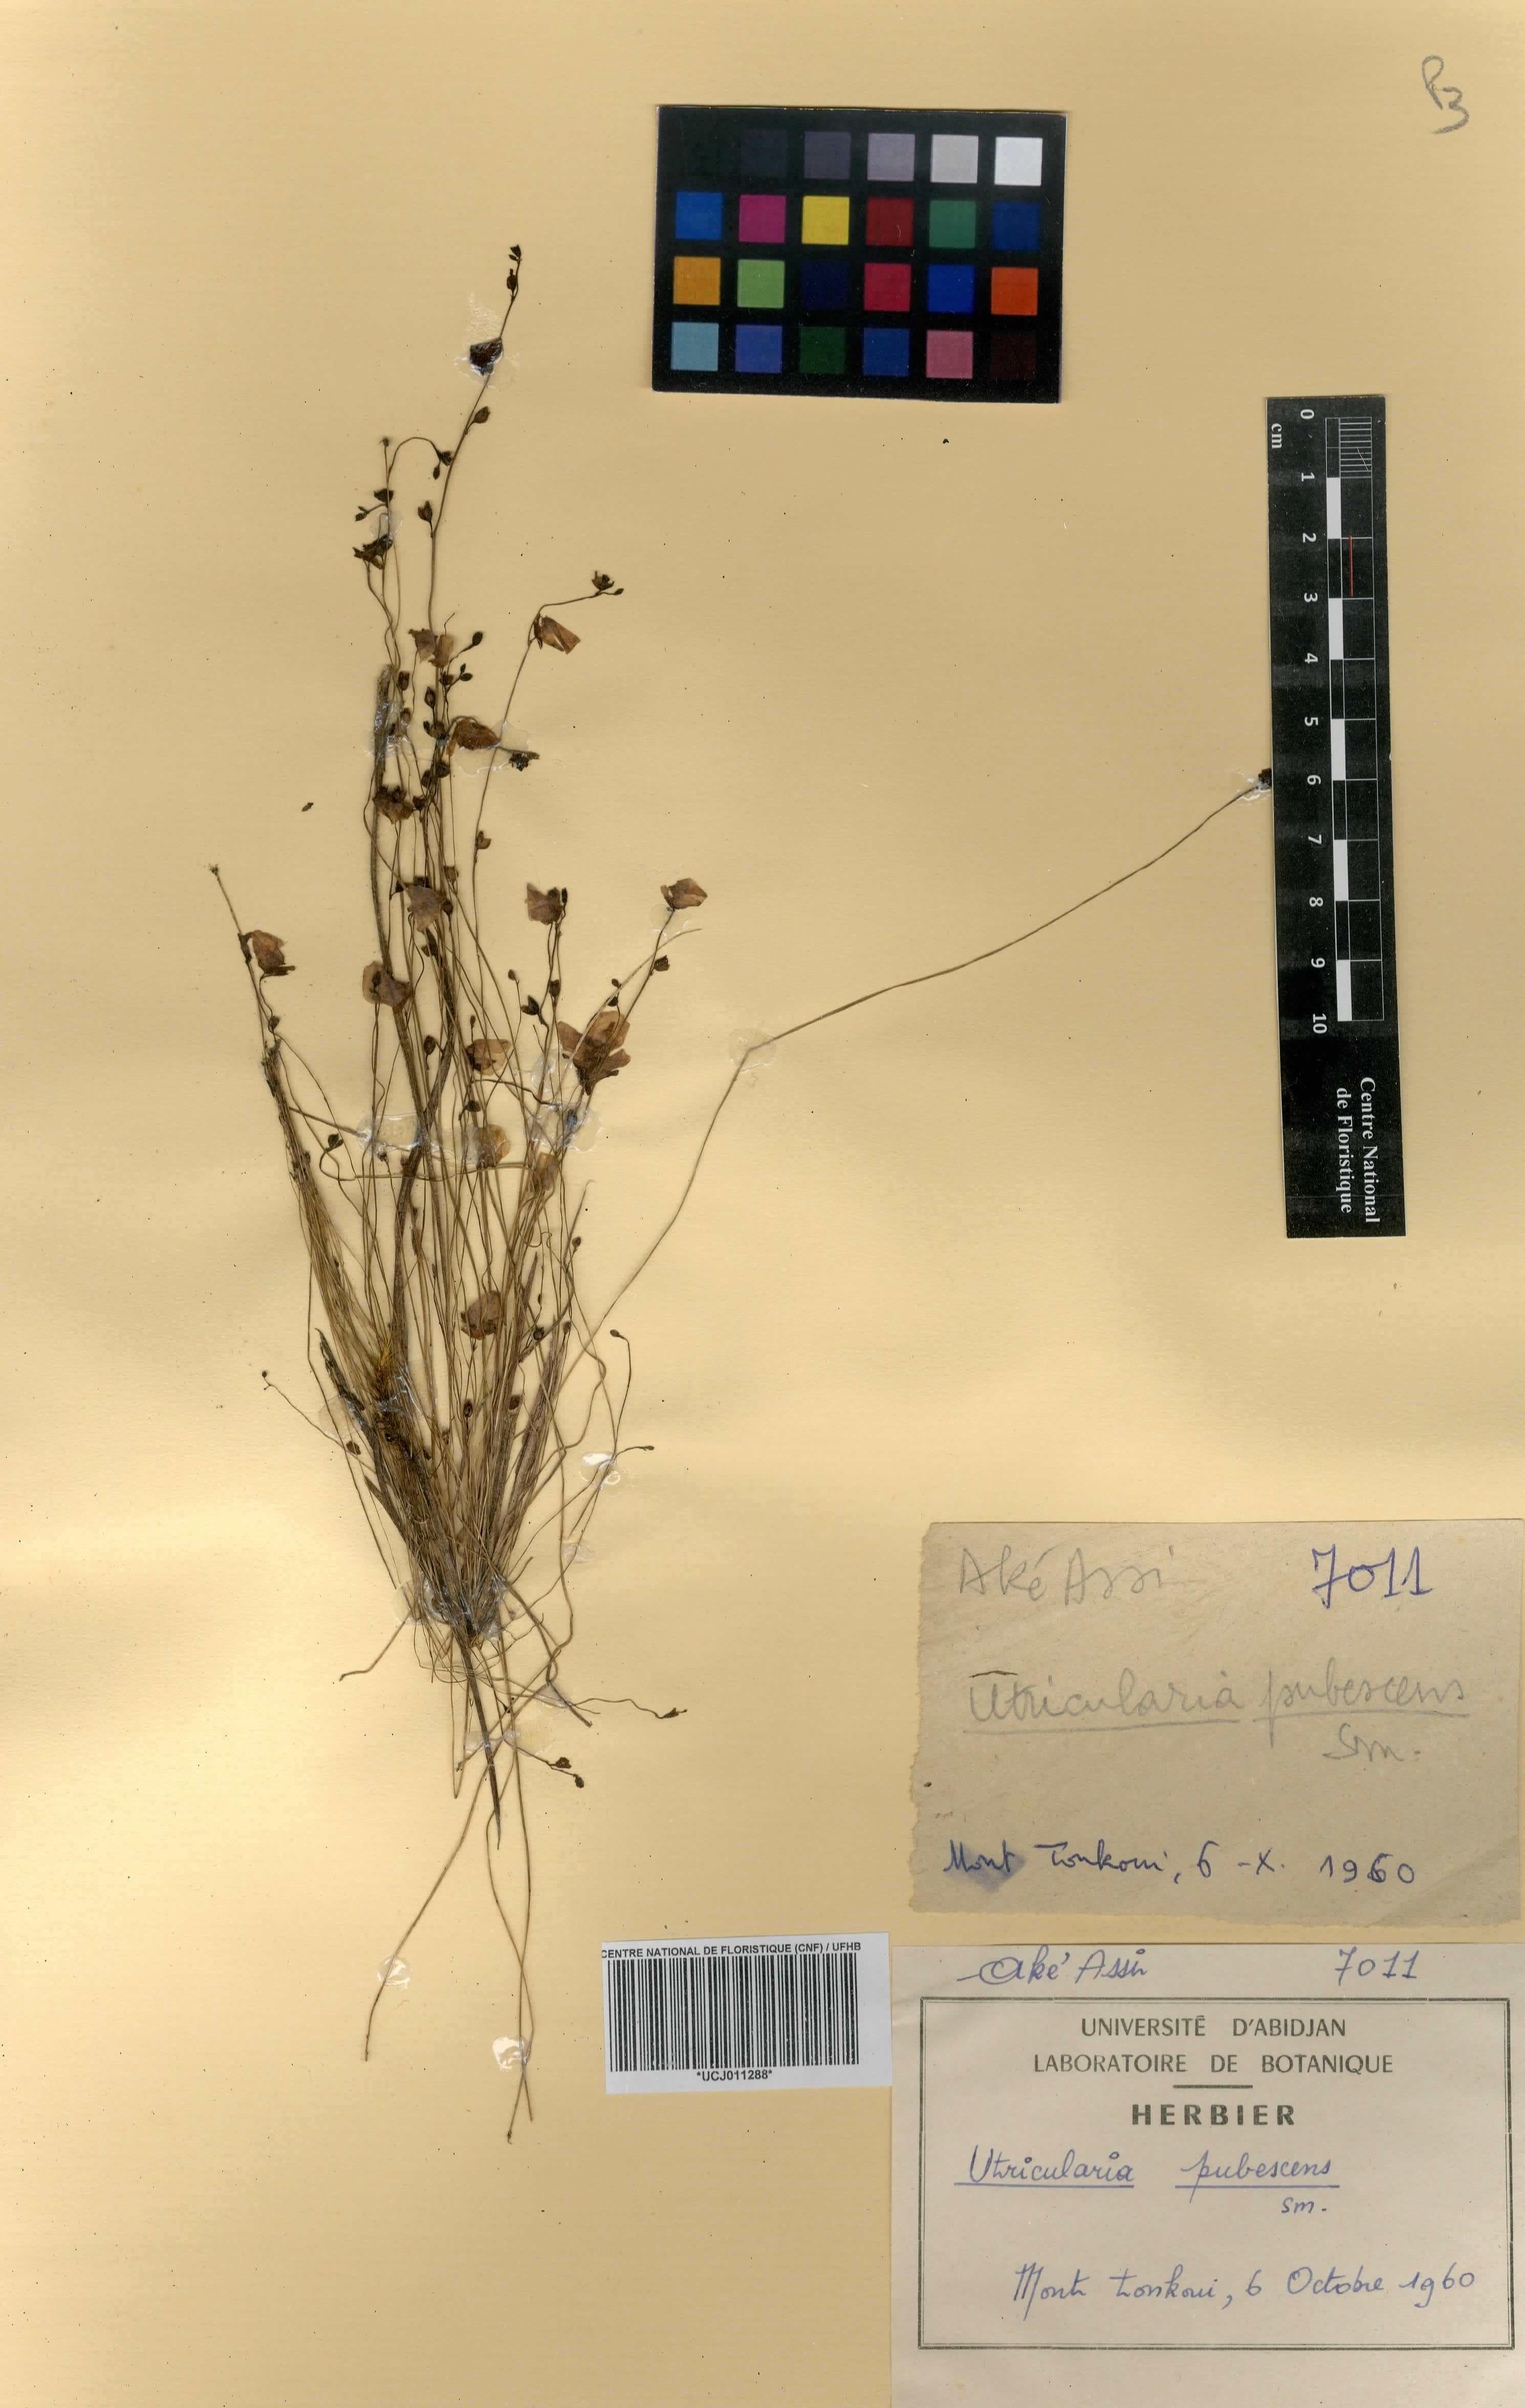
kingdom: Plantae
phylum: Tracheophyta
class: Magnoliopsida
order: Lamiales
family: Lentibulariaceae
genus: Utricularia
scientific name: Utricularia pubescens
